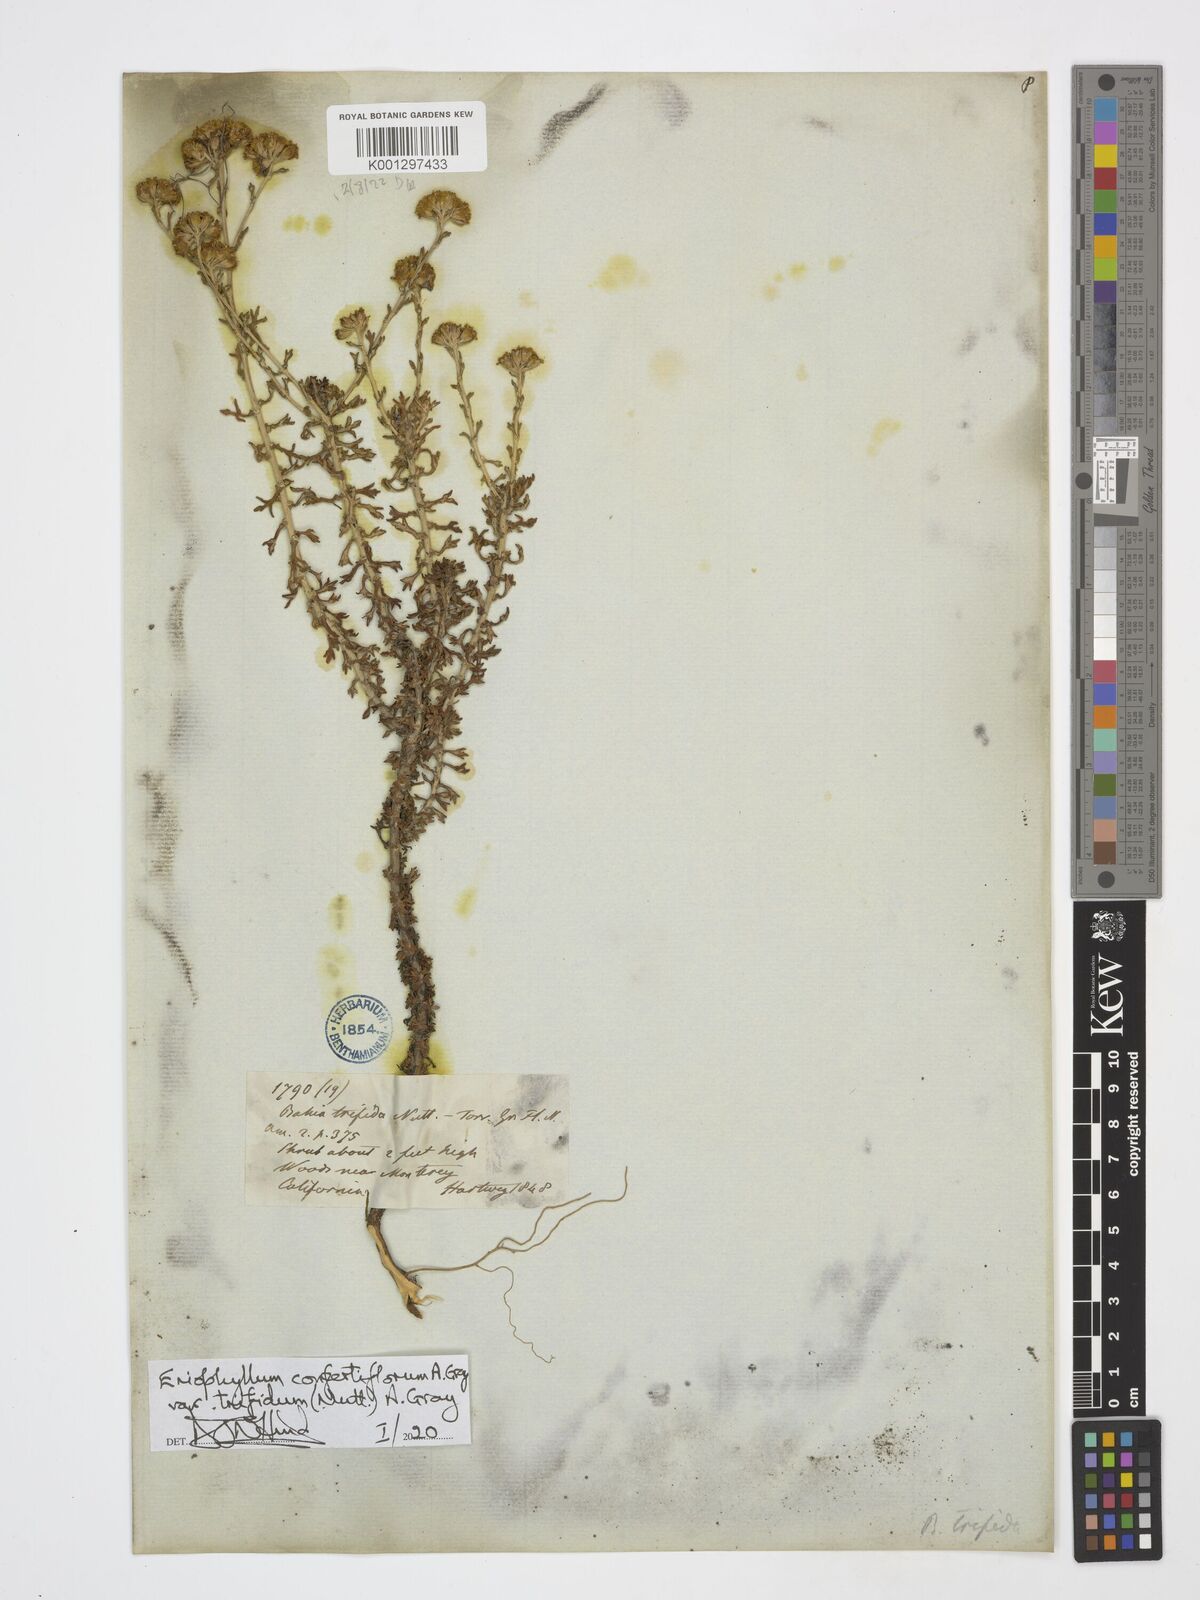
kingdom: Plantae
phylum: Tracheophyta
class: Magnoliopsida
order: Asterales
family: Asteraceae
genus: Eriophyllum
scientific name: Eriophyllum confertiflorum
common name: Golden-yarrow
